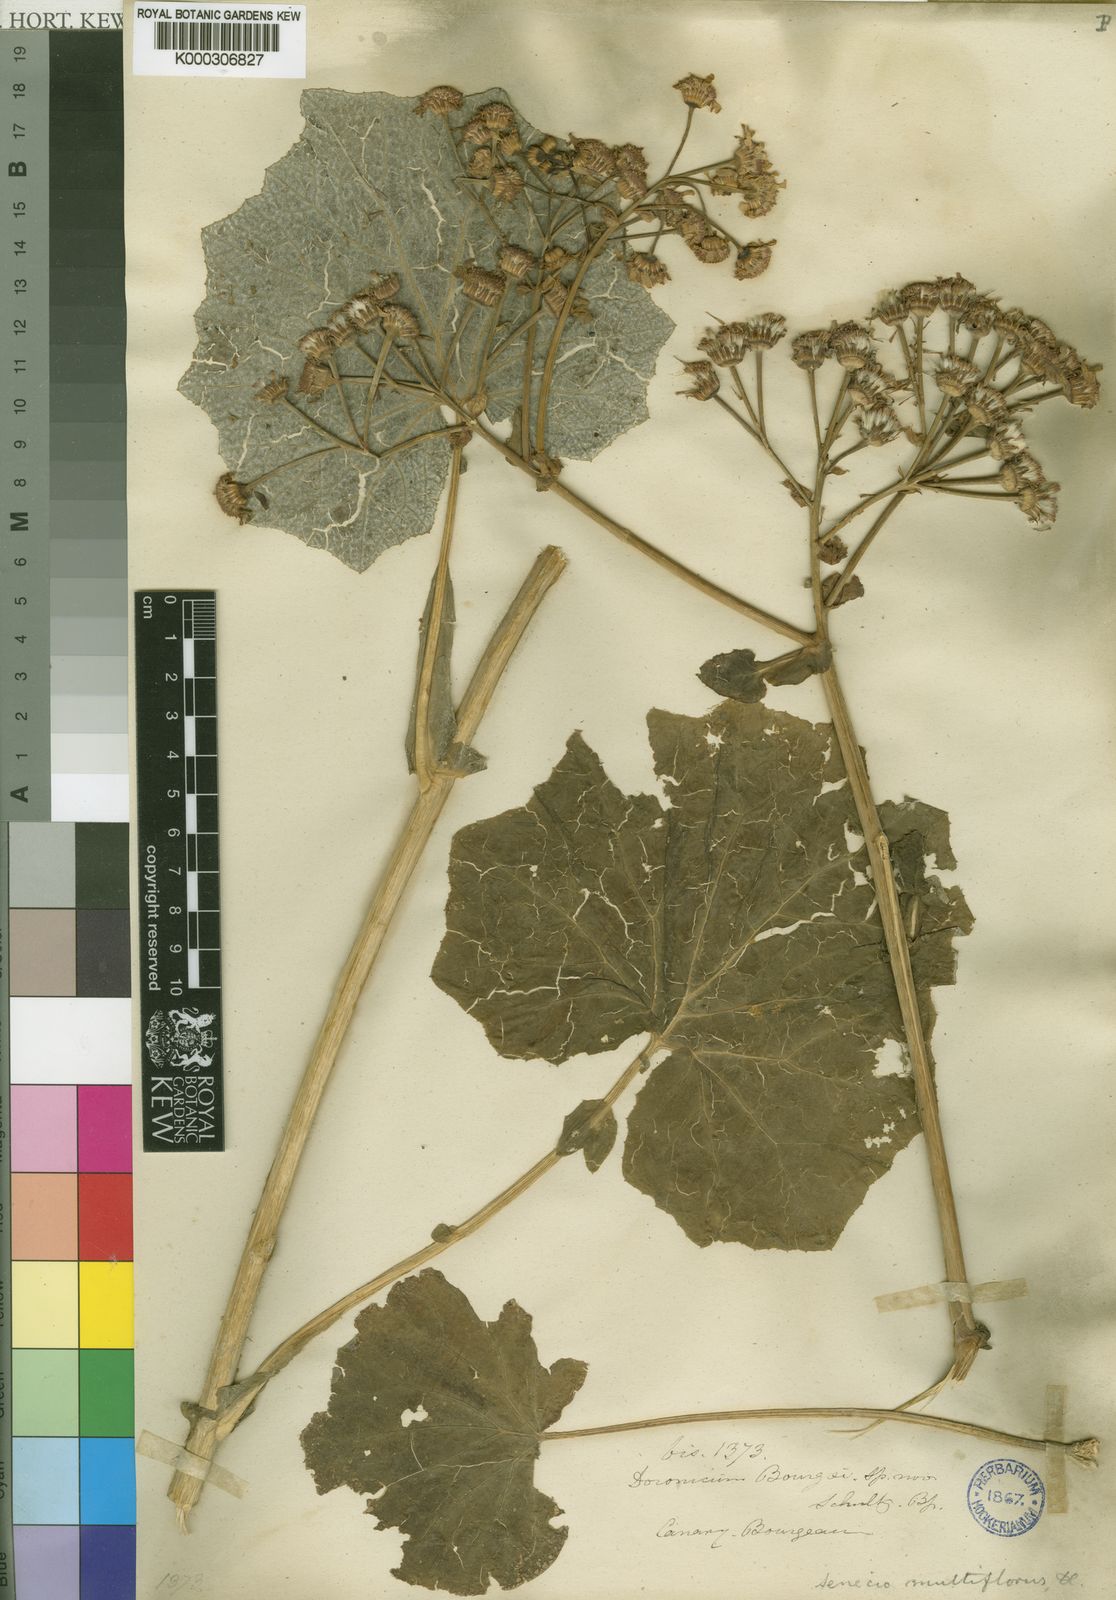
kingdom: Plantae
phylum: Tracheophyta
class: Magnoliopsida
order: Asterales
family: Asteraceae
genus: Pericallis
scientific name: Pericallis webbii
